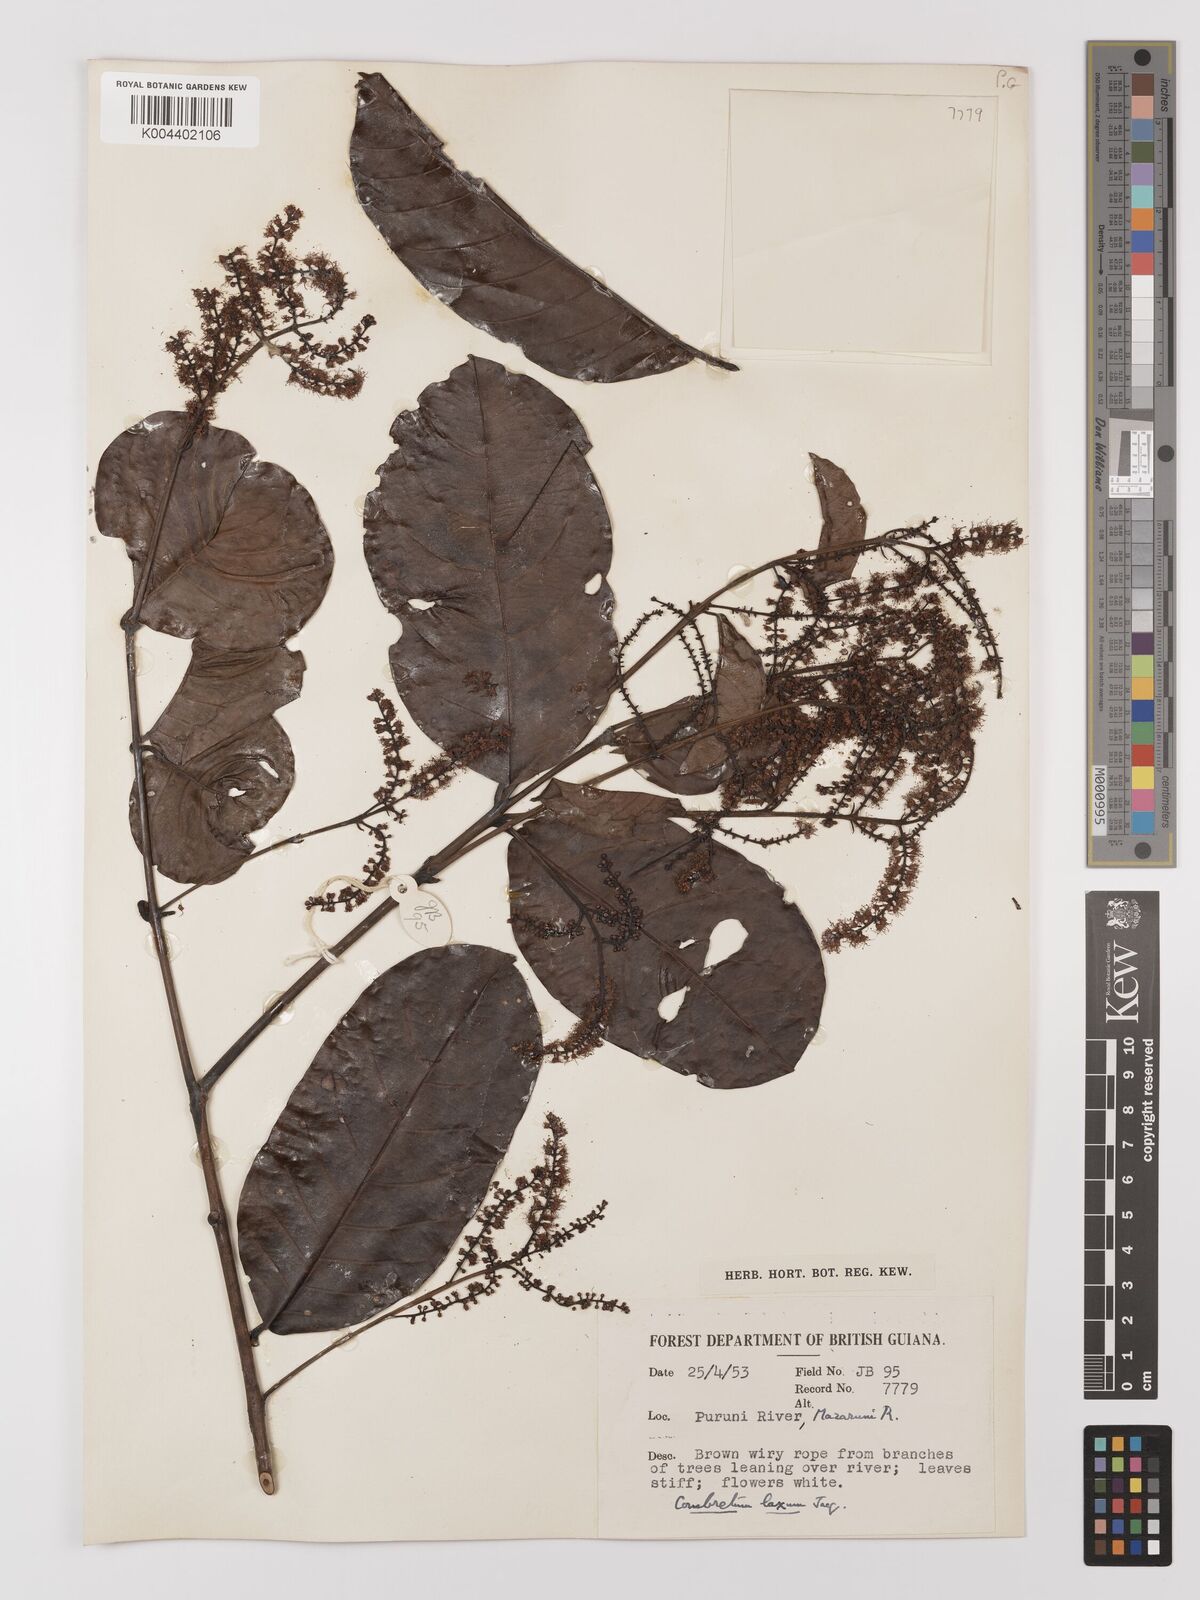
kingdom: Plantae
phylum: Tracheophyta
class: Magnoliopsida
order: Myrtales
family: Combretaceae
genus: Combretum
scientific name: Combretum
